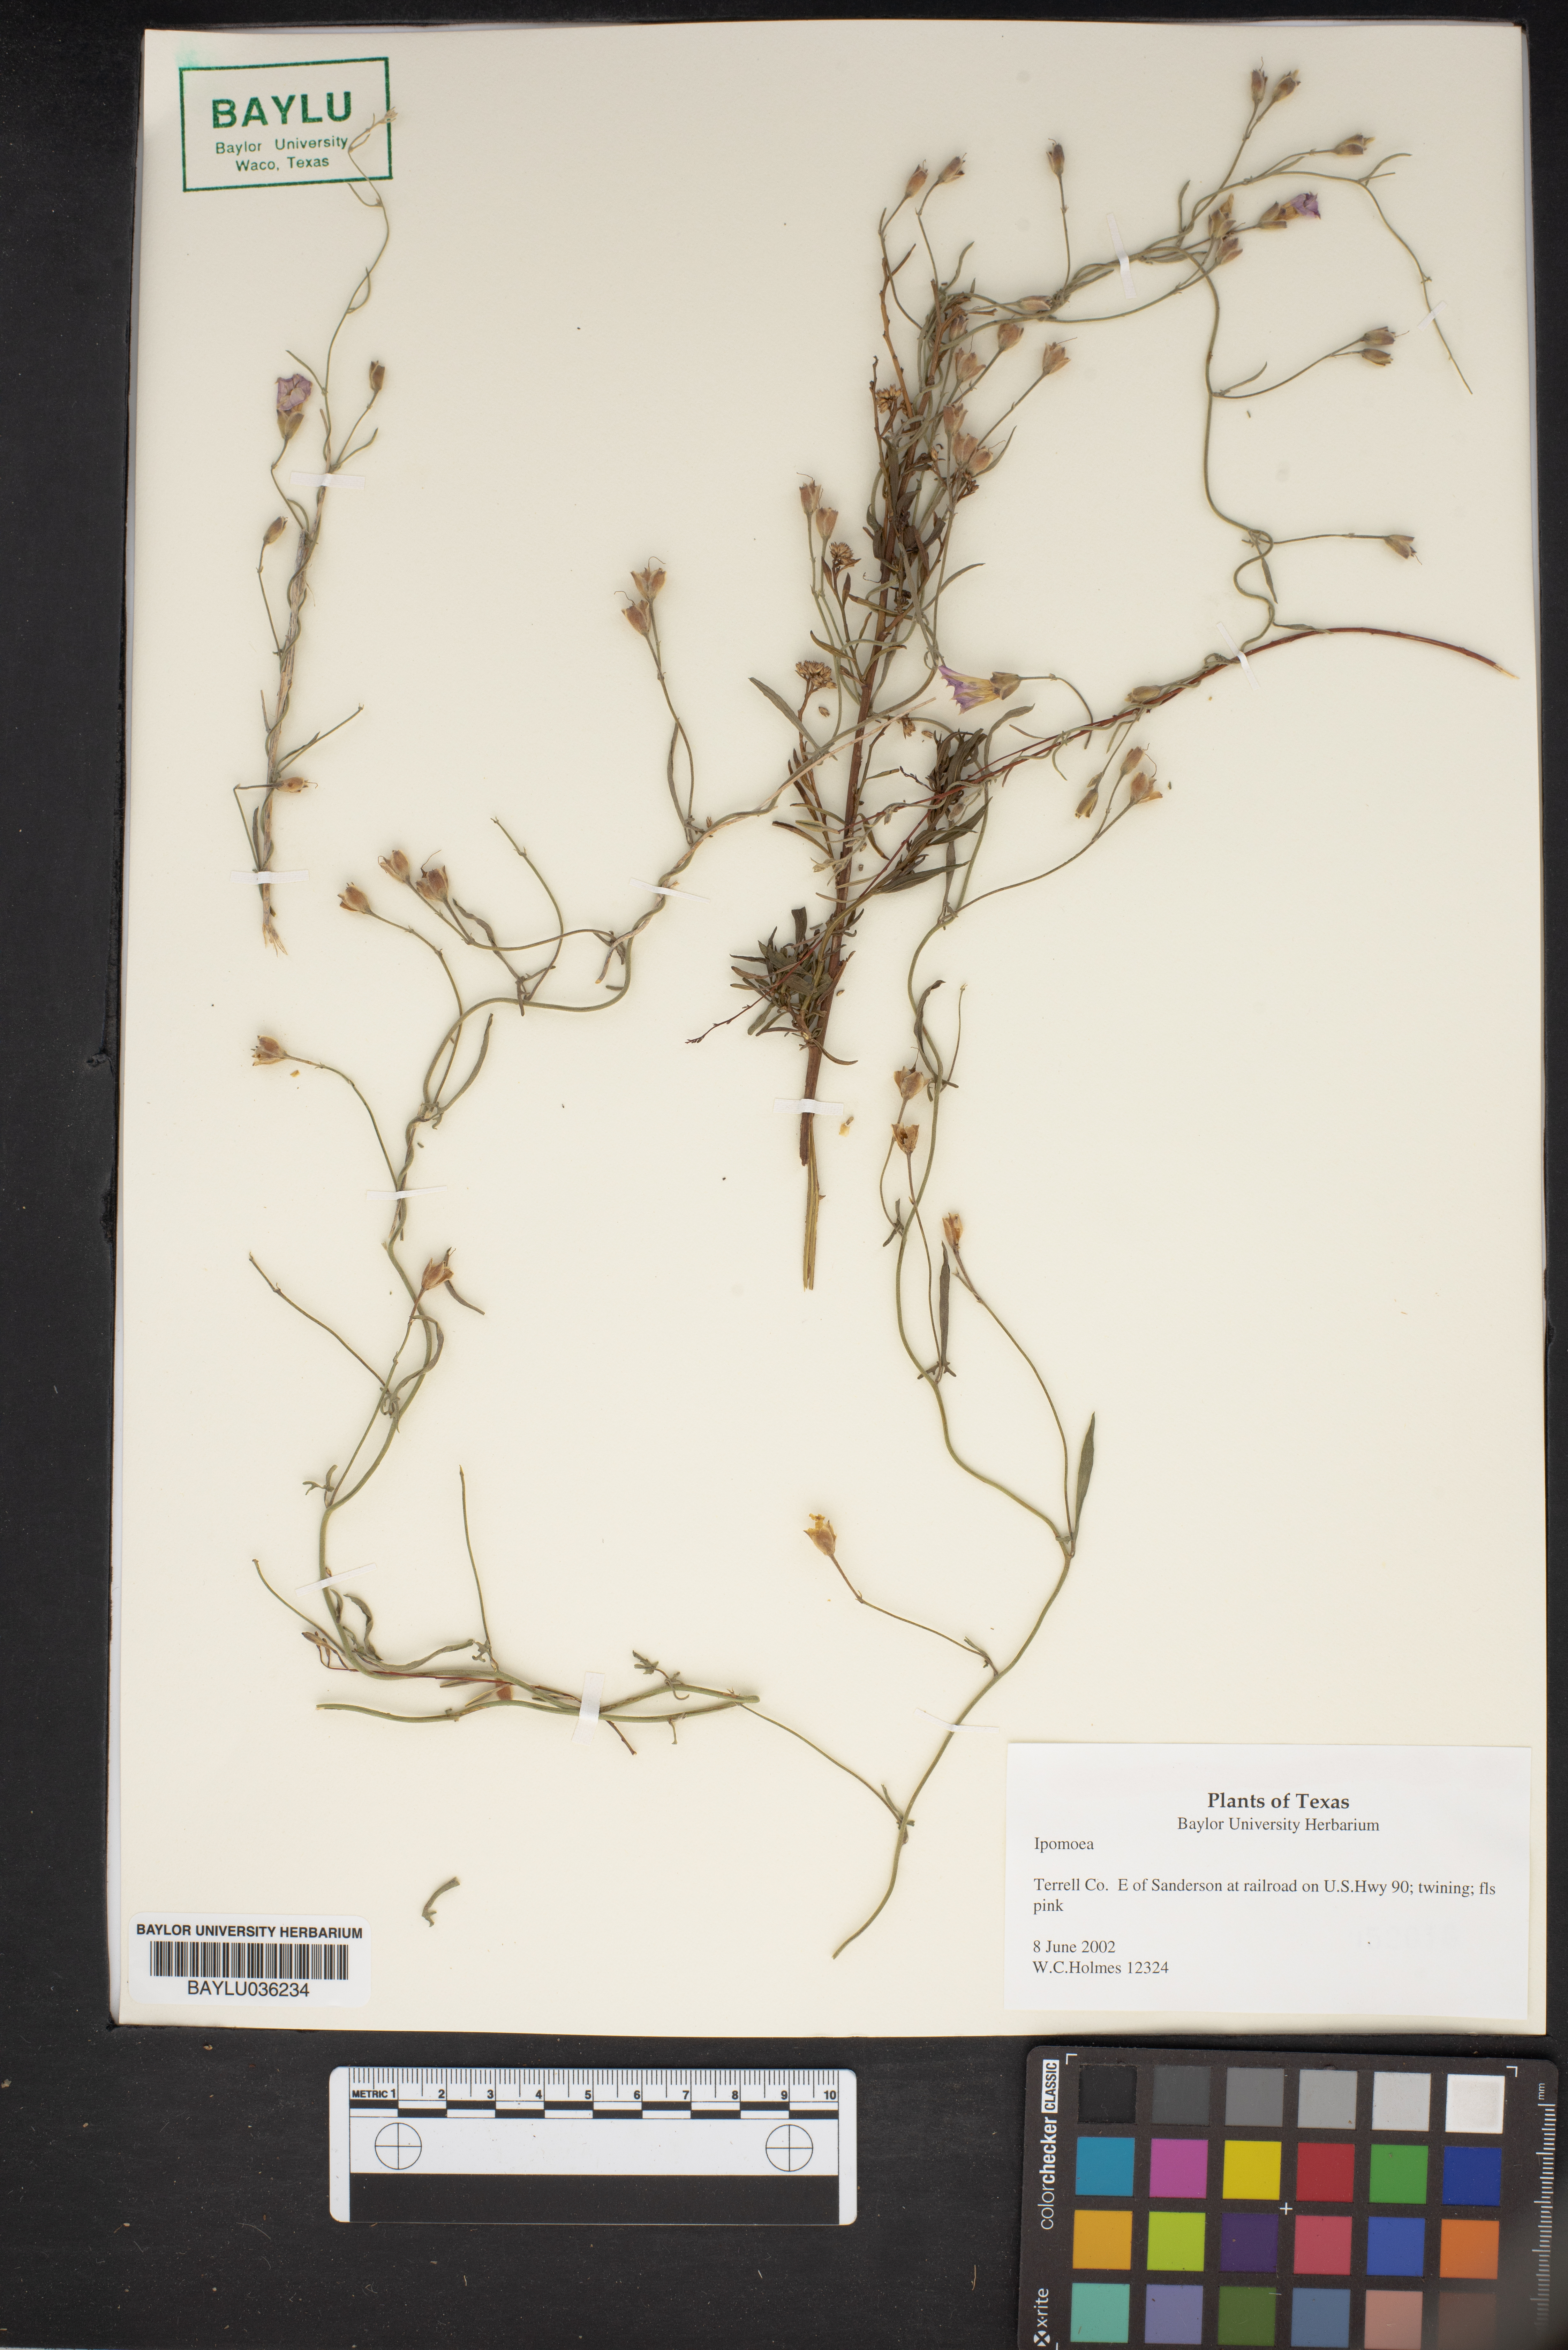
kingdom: Plantae
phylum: Tracheophyta
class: Magnoliopsida
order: Solanales
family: Convolvulaceae
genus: Ipomoea
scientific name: Ipomoea
